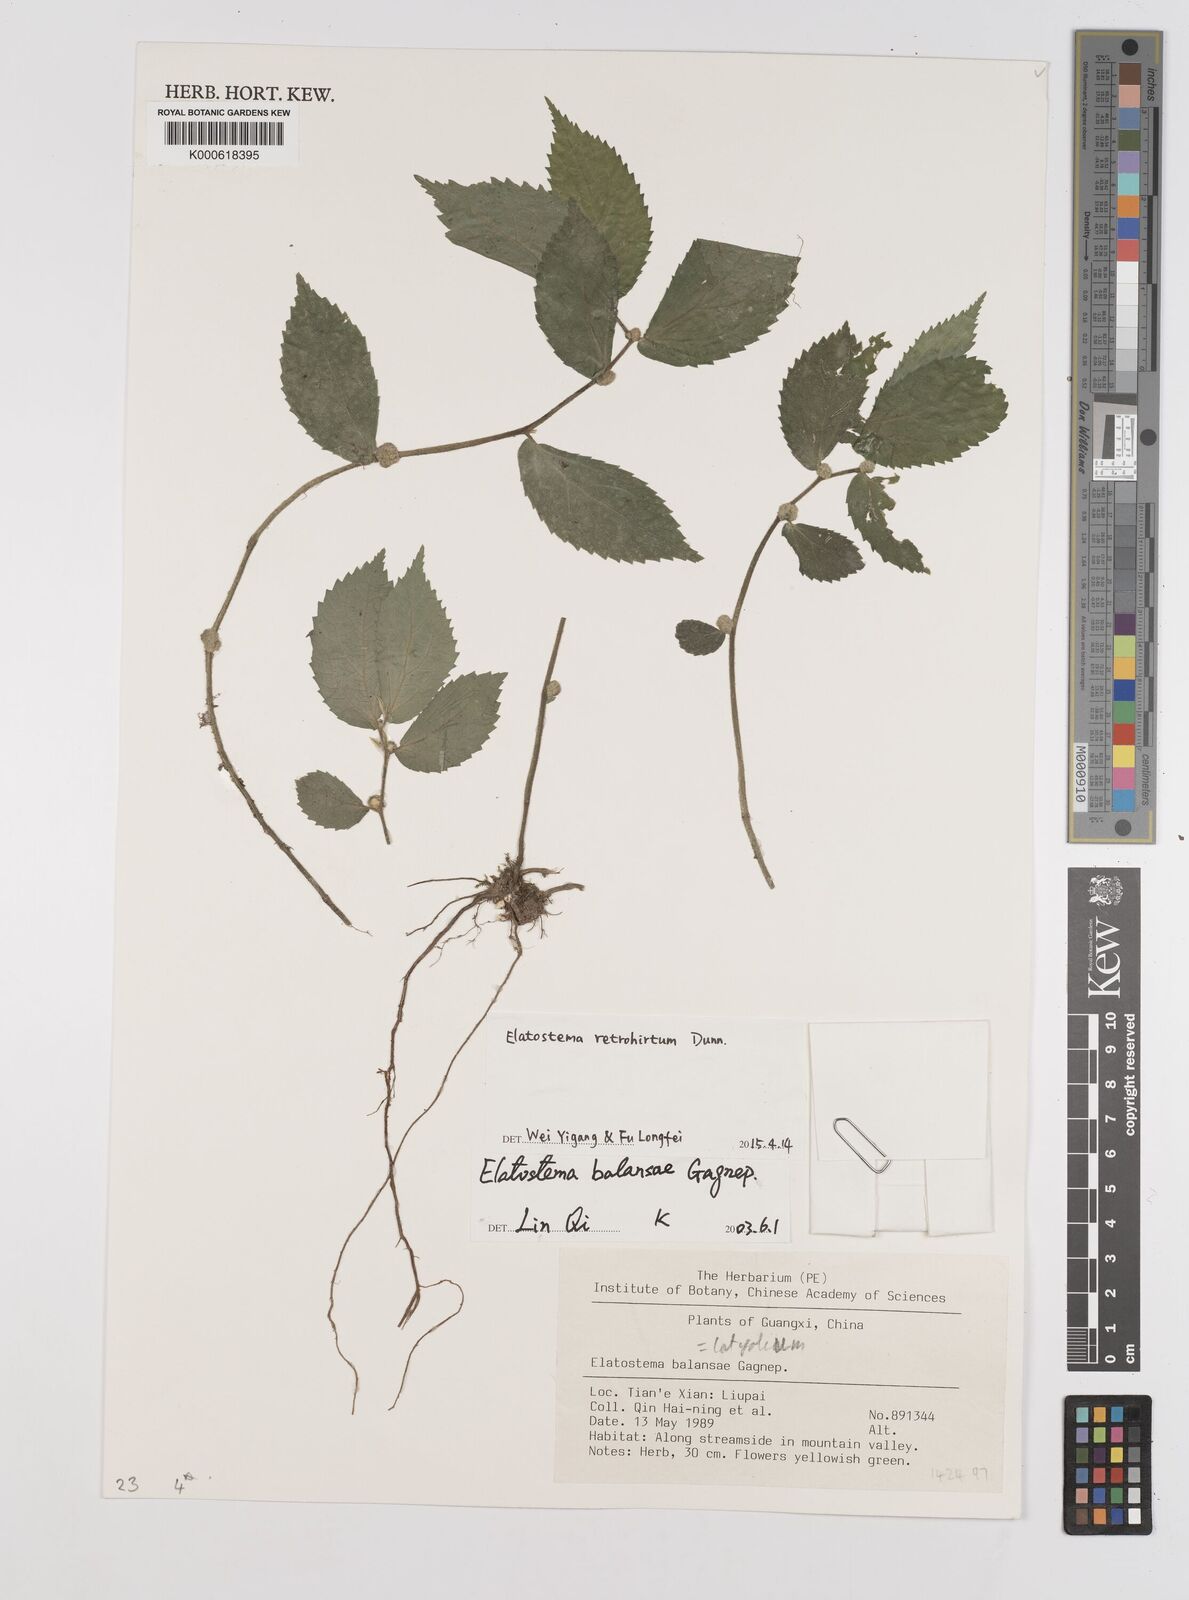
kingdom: Plantae
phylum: Tracheophyta
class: Magnoliopsida
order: Rosales
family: Urticaceae
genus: Elatostema
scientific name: Elatostema retrohirtum
